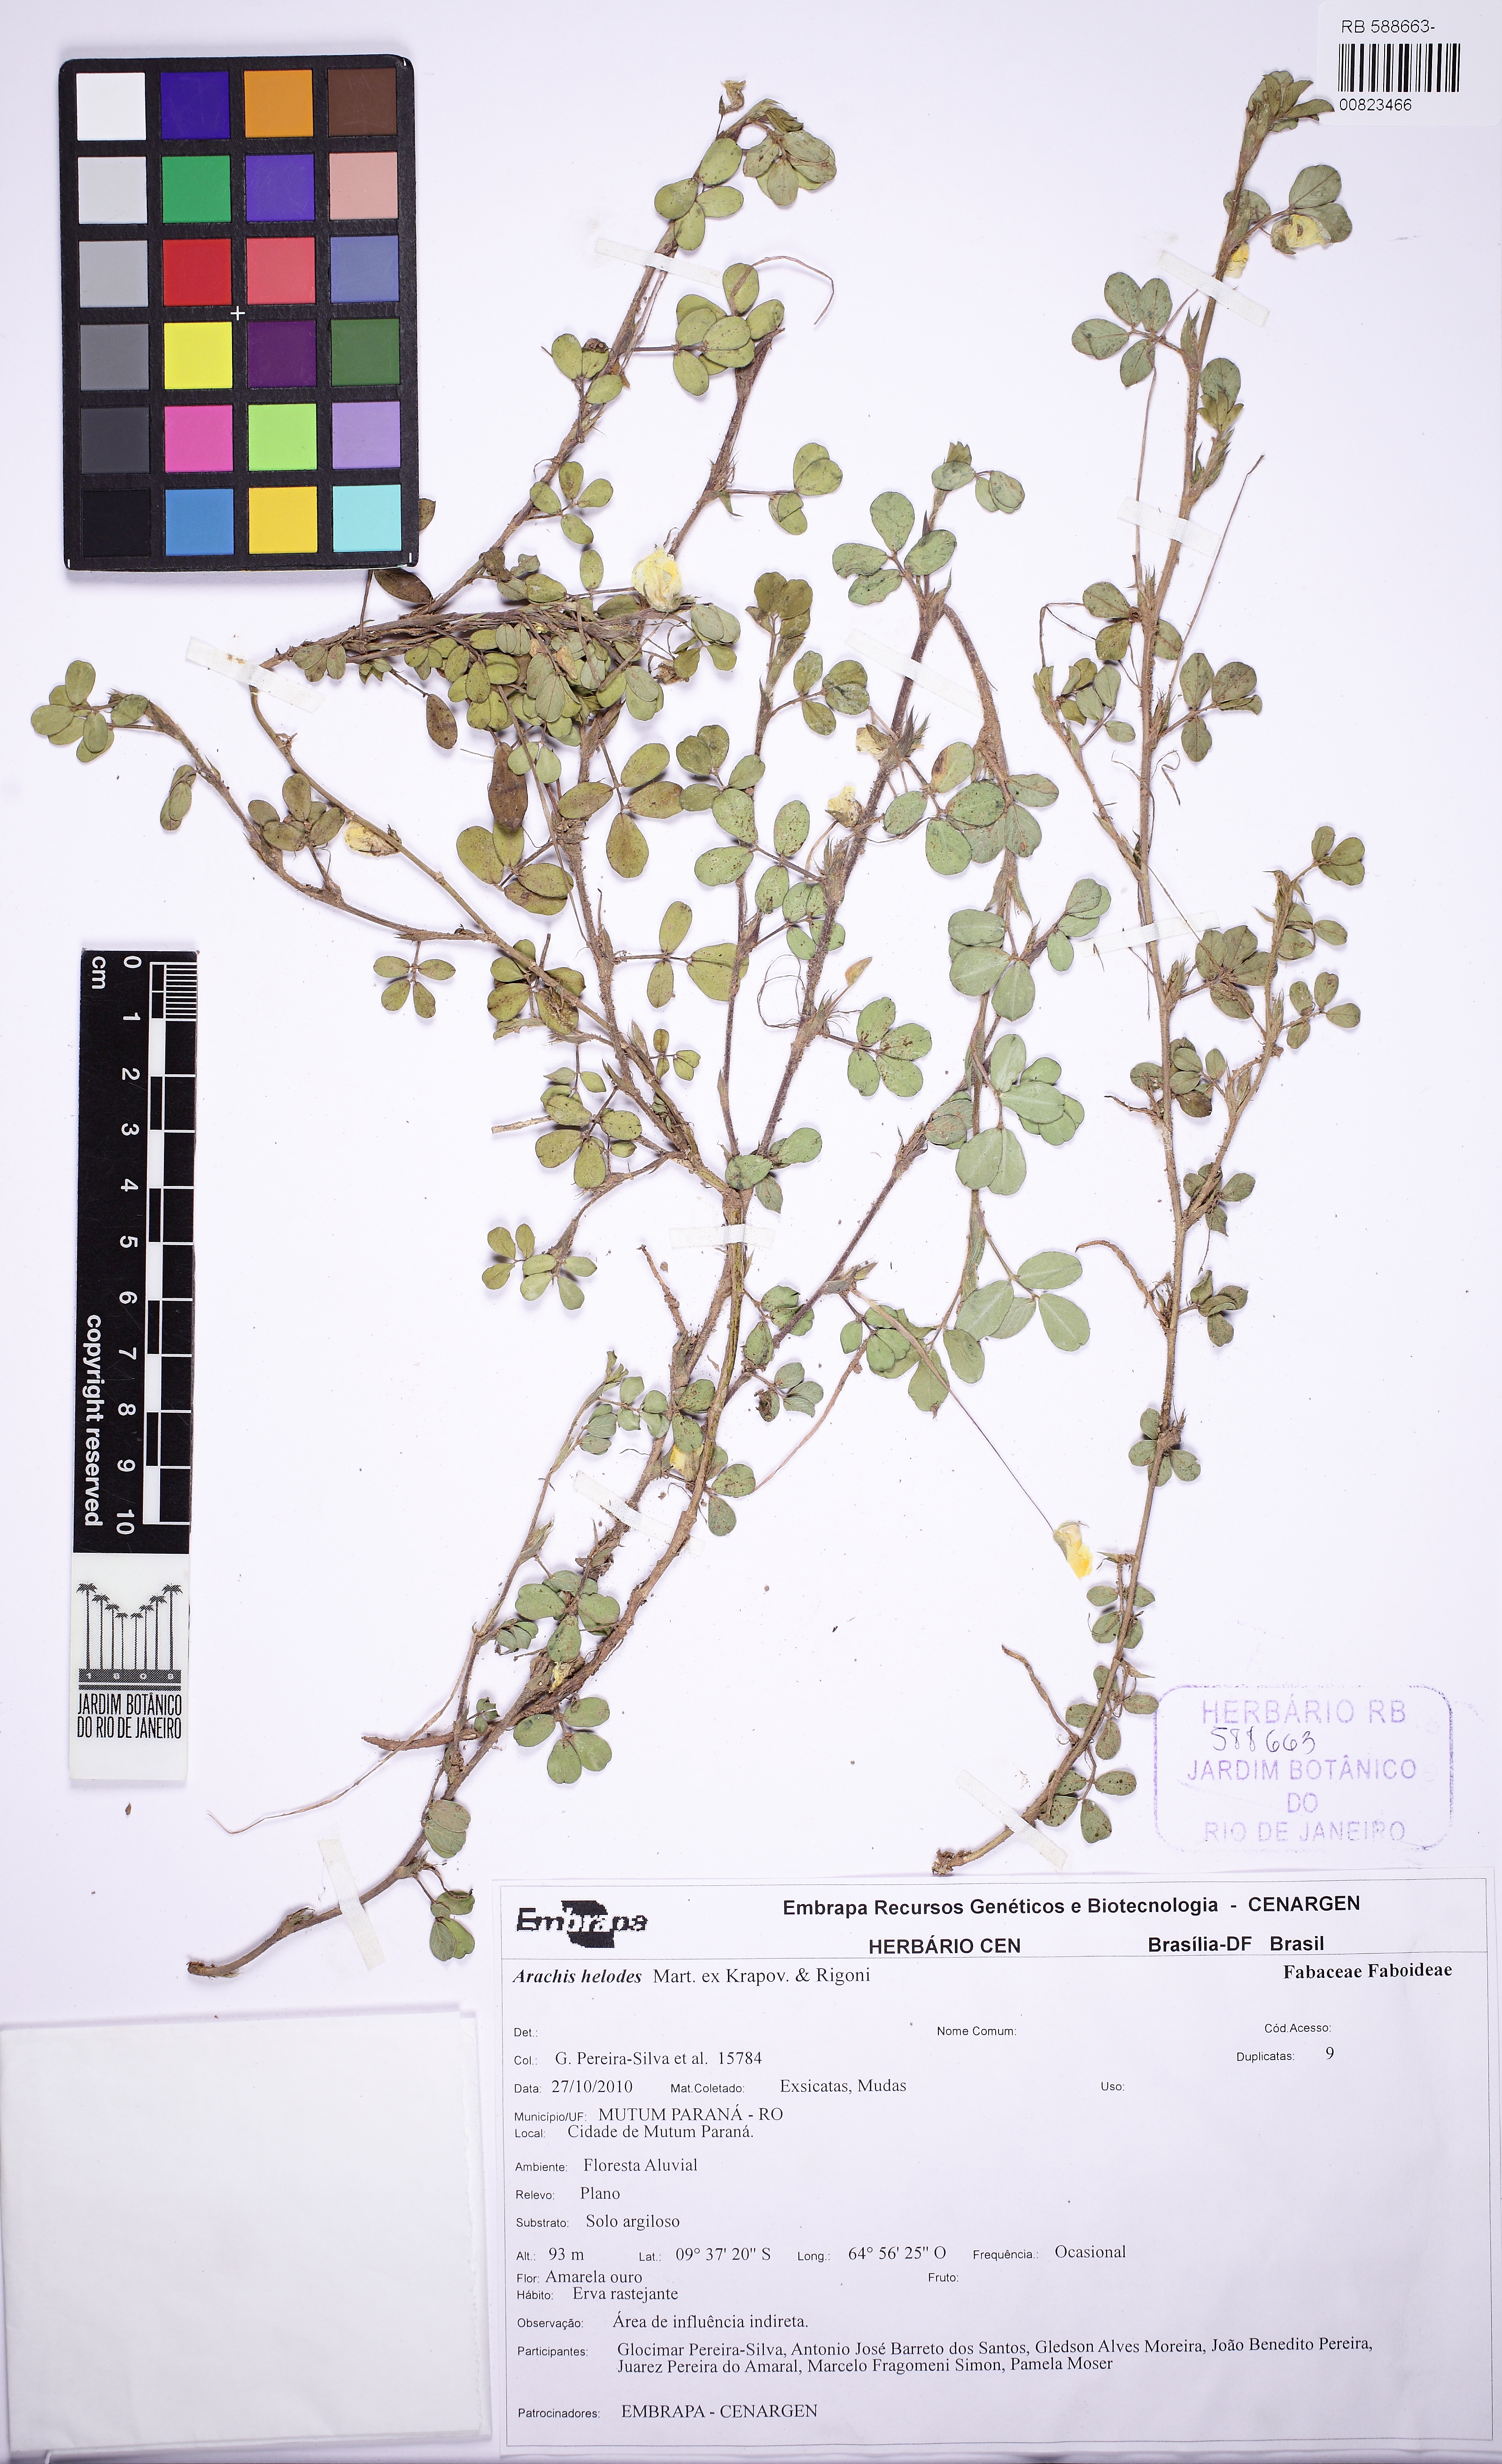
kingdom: Plantae
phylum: Tracheophyta
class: Magnoliopsida
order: Fabales
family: Fabaceae
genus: Arachis
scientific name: Arachis helodes
